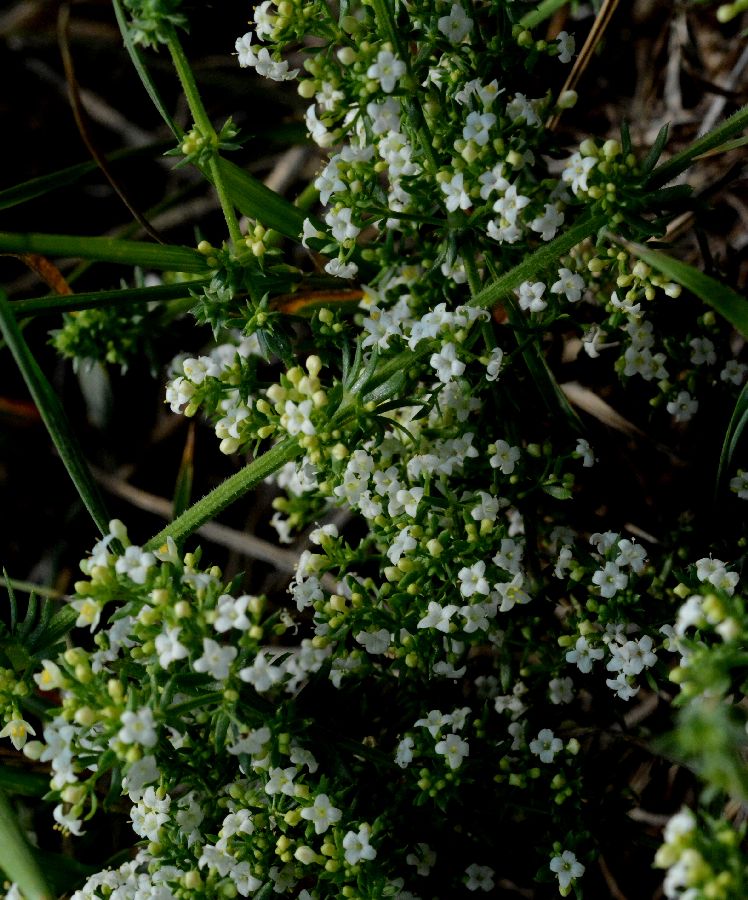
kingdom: Plantae
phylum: Tracheophyta
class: Magnoliopsida
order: Gentianales
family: Rubiaceae
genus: Galium
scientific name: Galium humifusum
